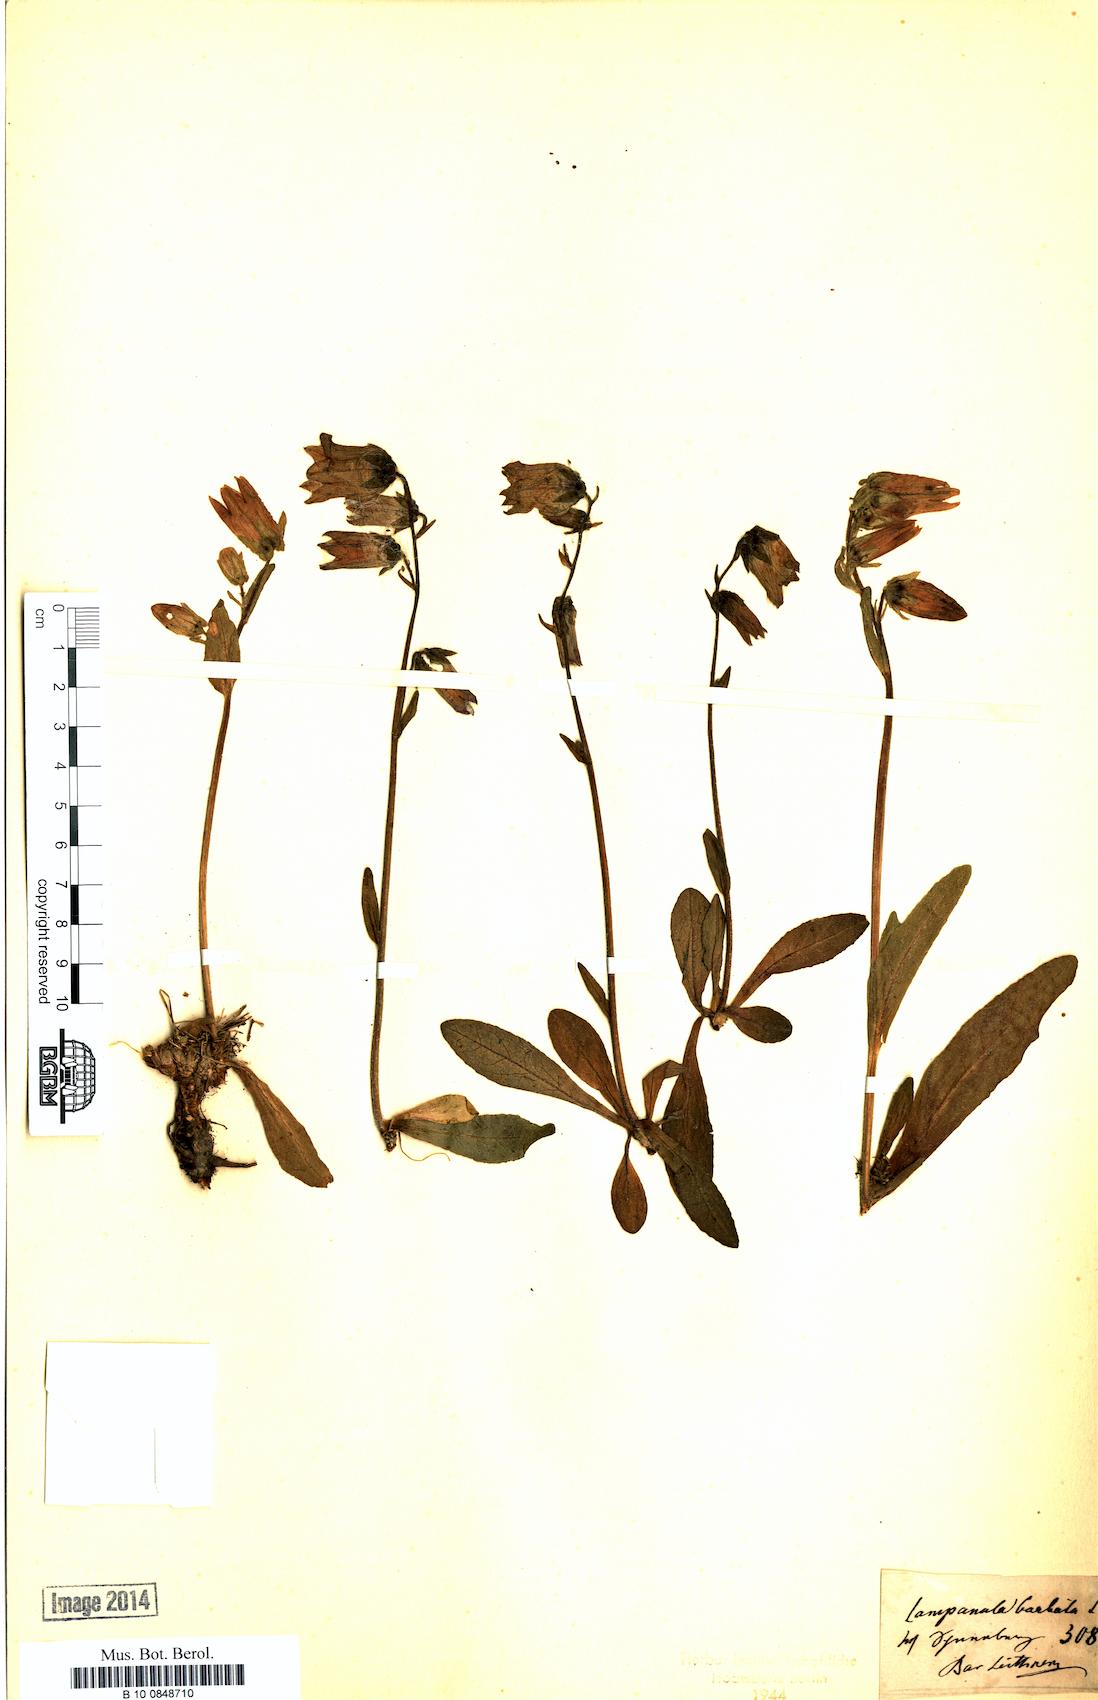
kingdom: Plantae
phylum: Tracheophyta
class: Magnoliopsida
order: Asterales
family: Campanulaceae
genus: Campanula
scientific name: Campanula barbata
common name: Bearded bellflower
